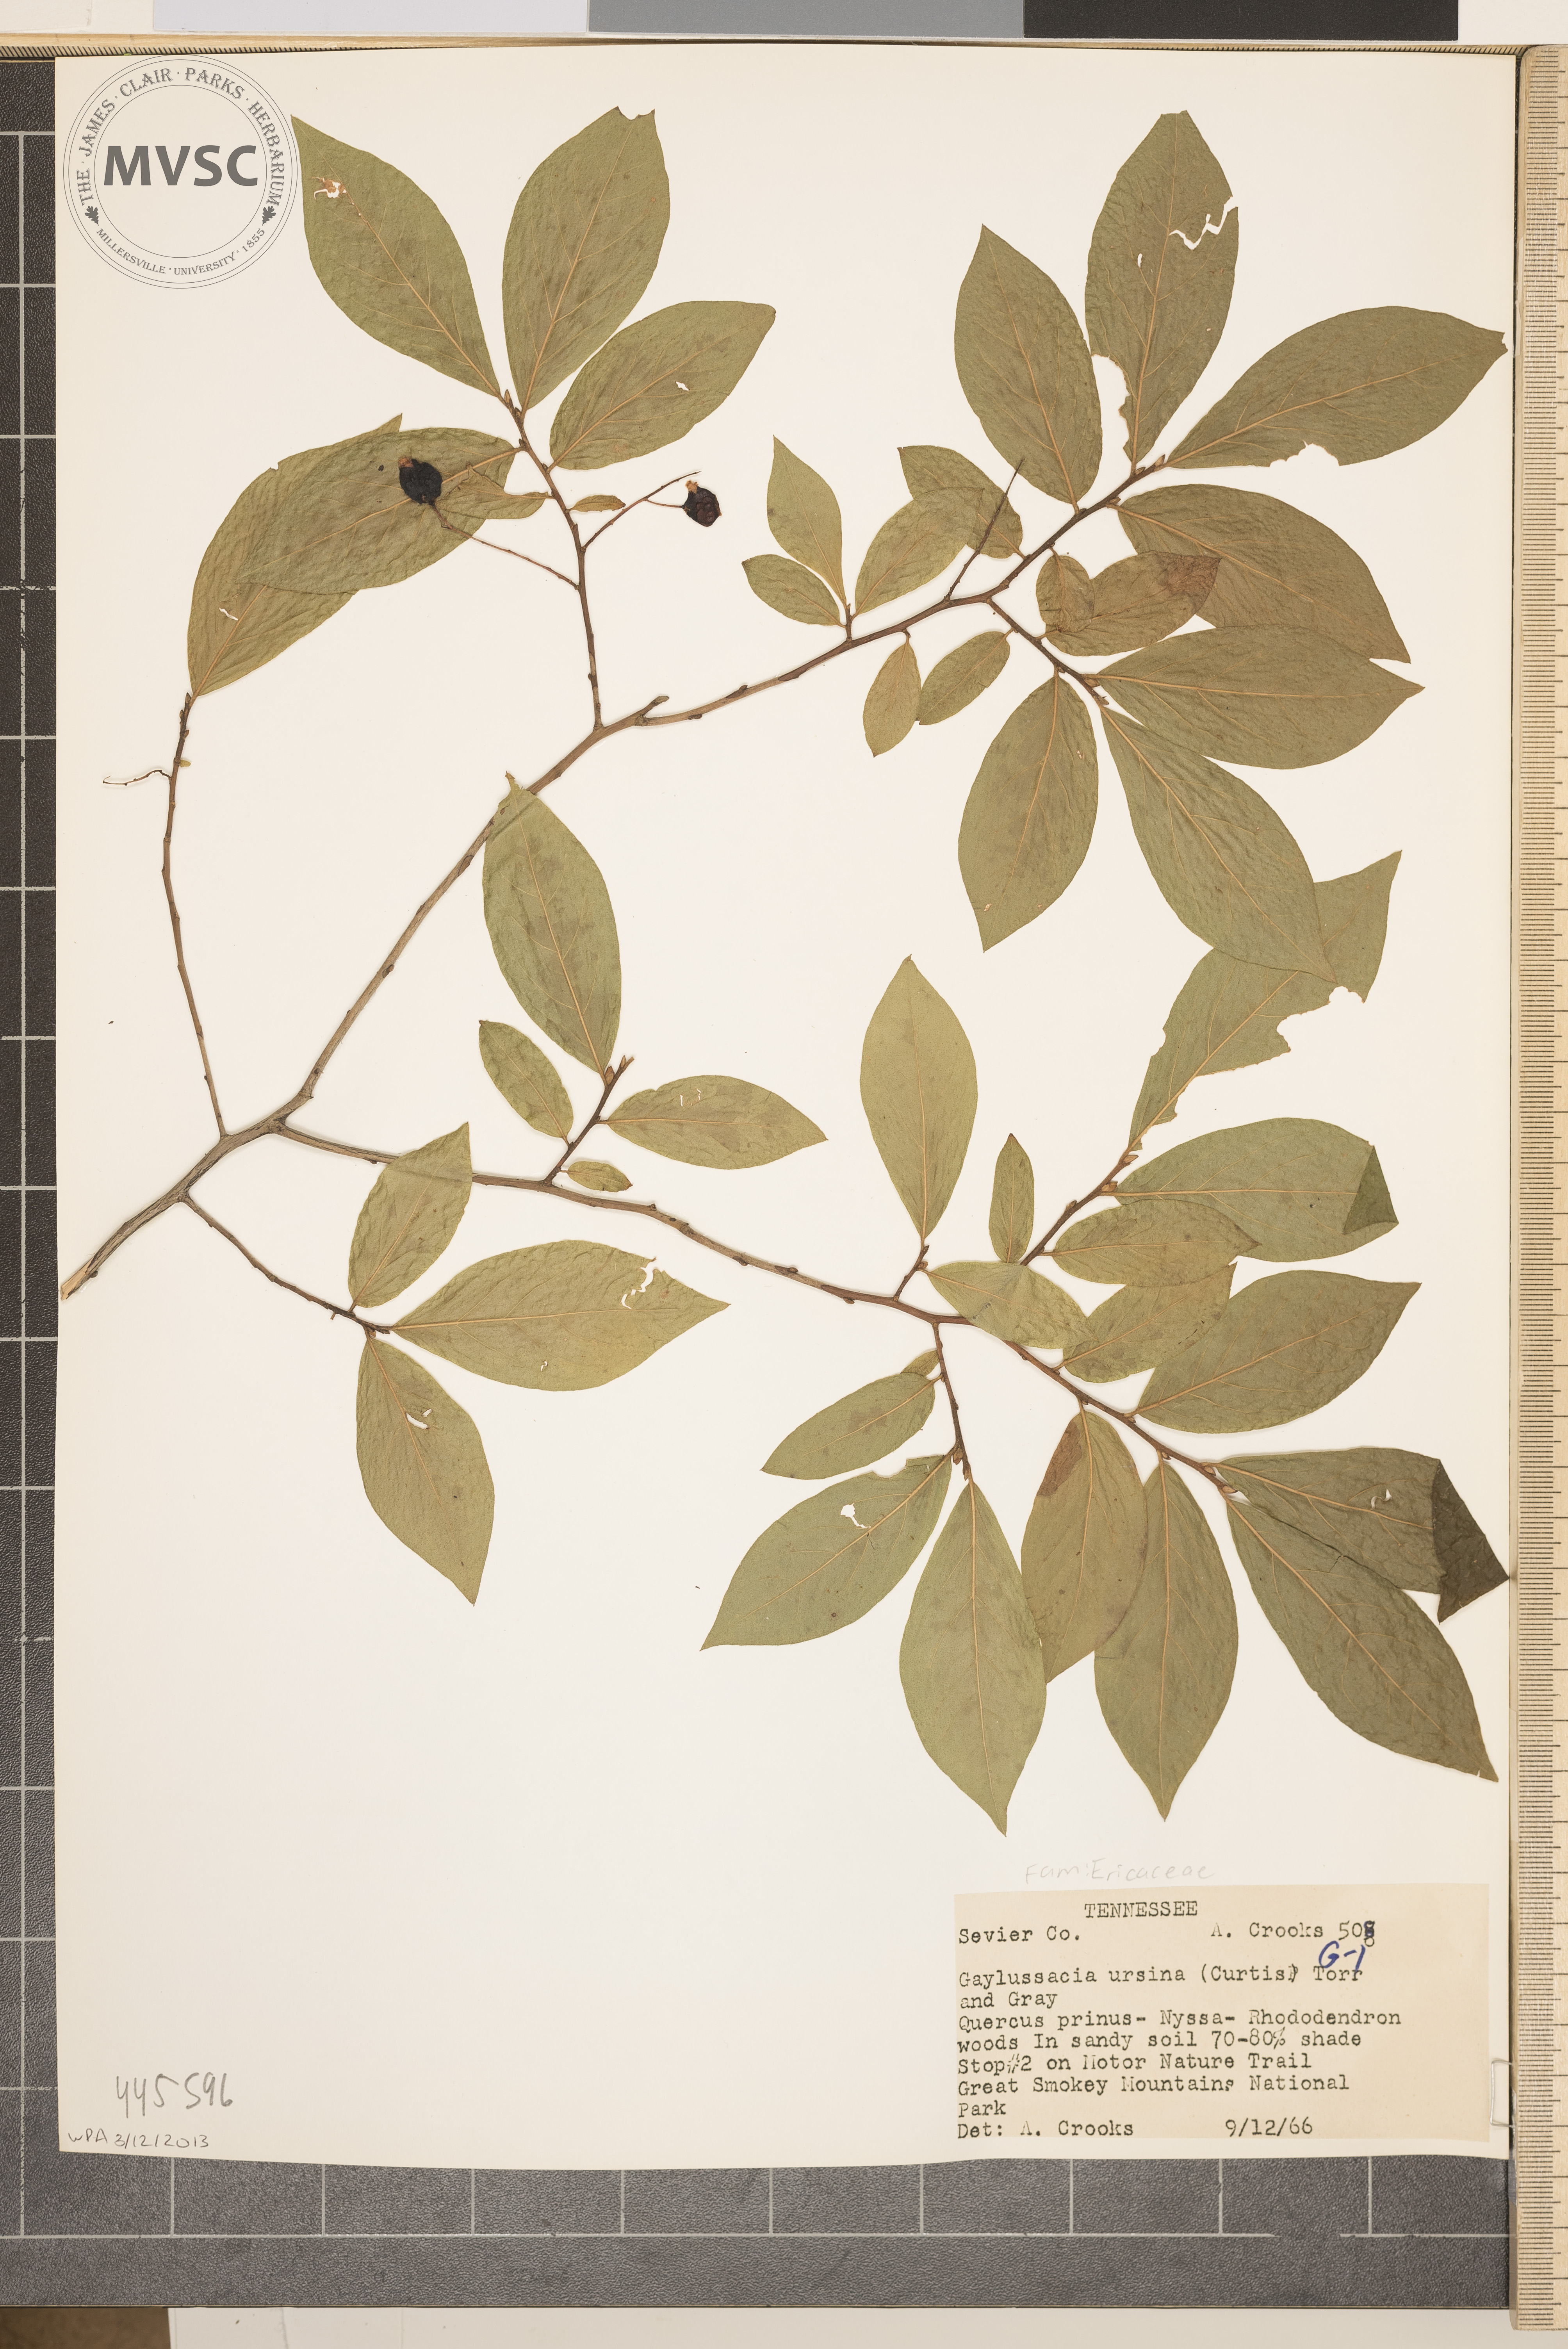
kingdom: Plantae
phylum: Tracheophyta
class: Magnoliopsida
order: Ericales
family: Ericaceae
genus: Gaylussacia
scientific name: Gaylussacia ursina
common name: Bear huckleberry
